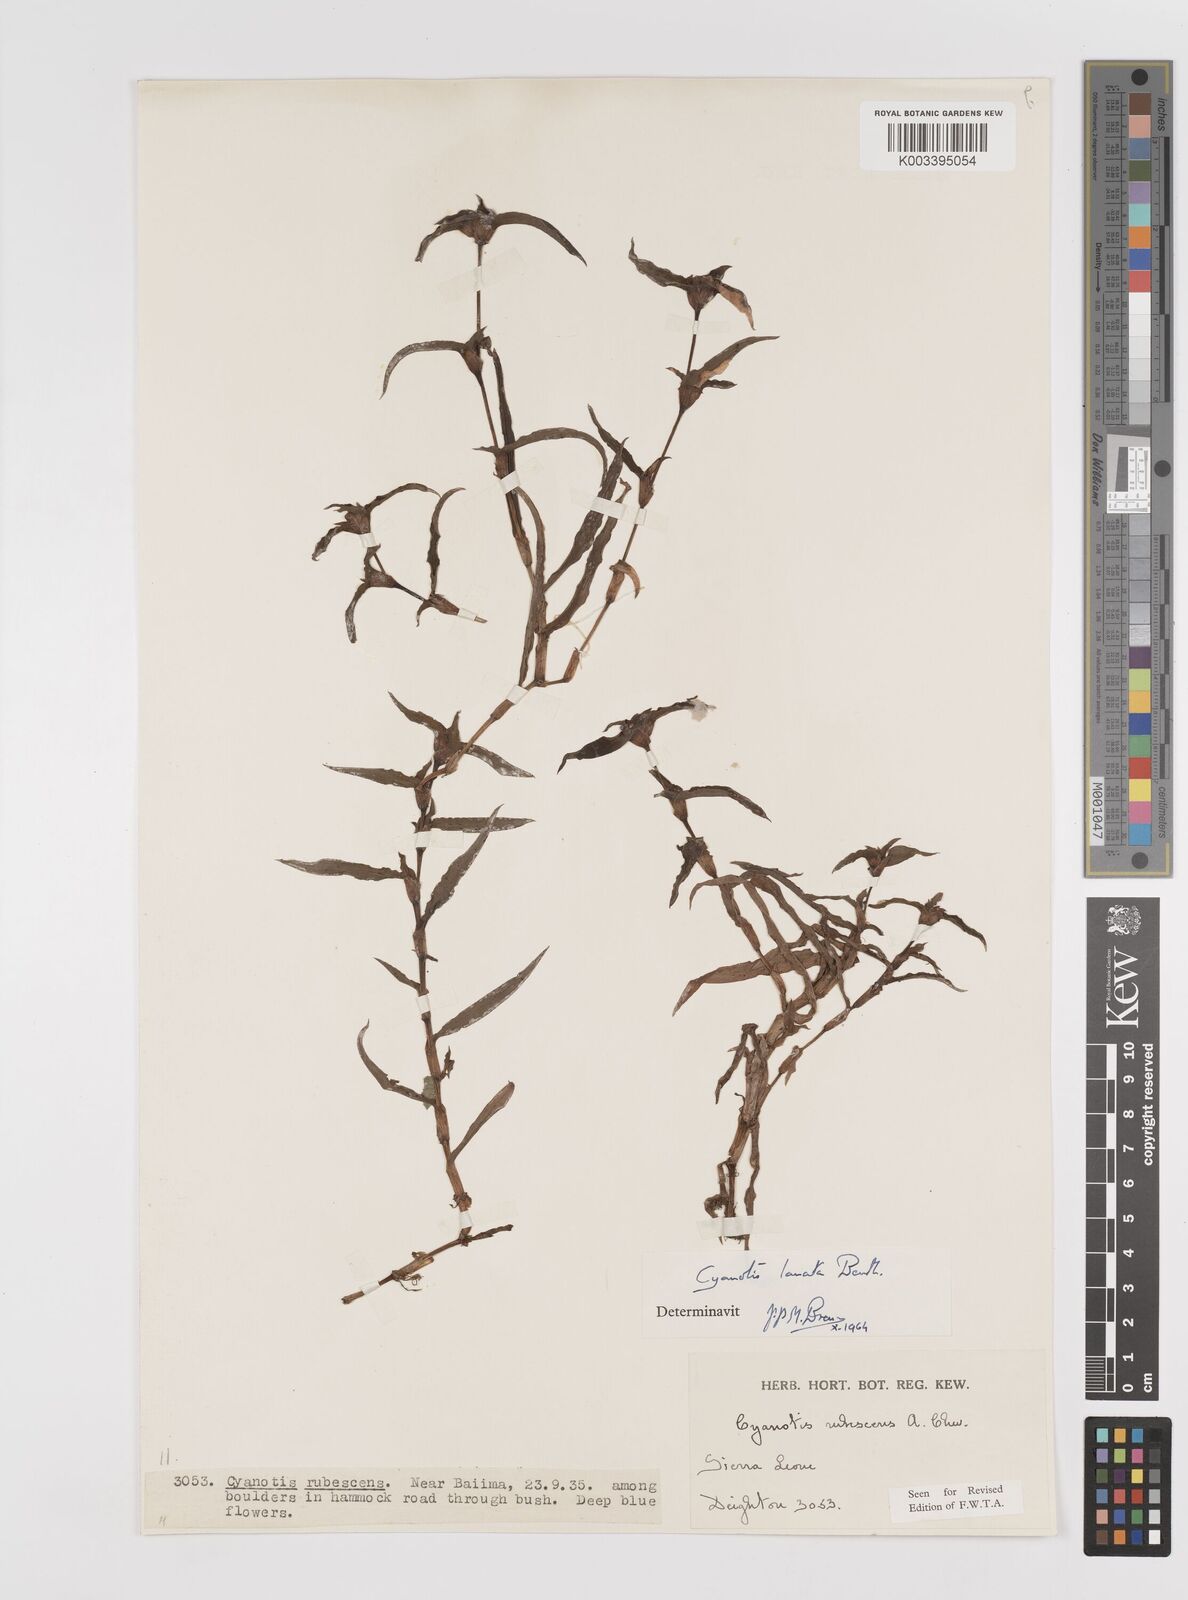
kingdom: Plantae
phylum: Tracheophyta
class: Liliopsida
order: Commelinales
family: Commelinaceae
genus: Cyanotis
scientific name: Cyanotis lanata
